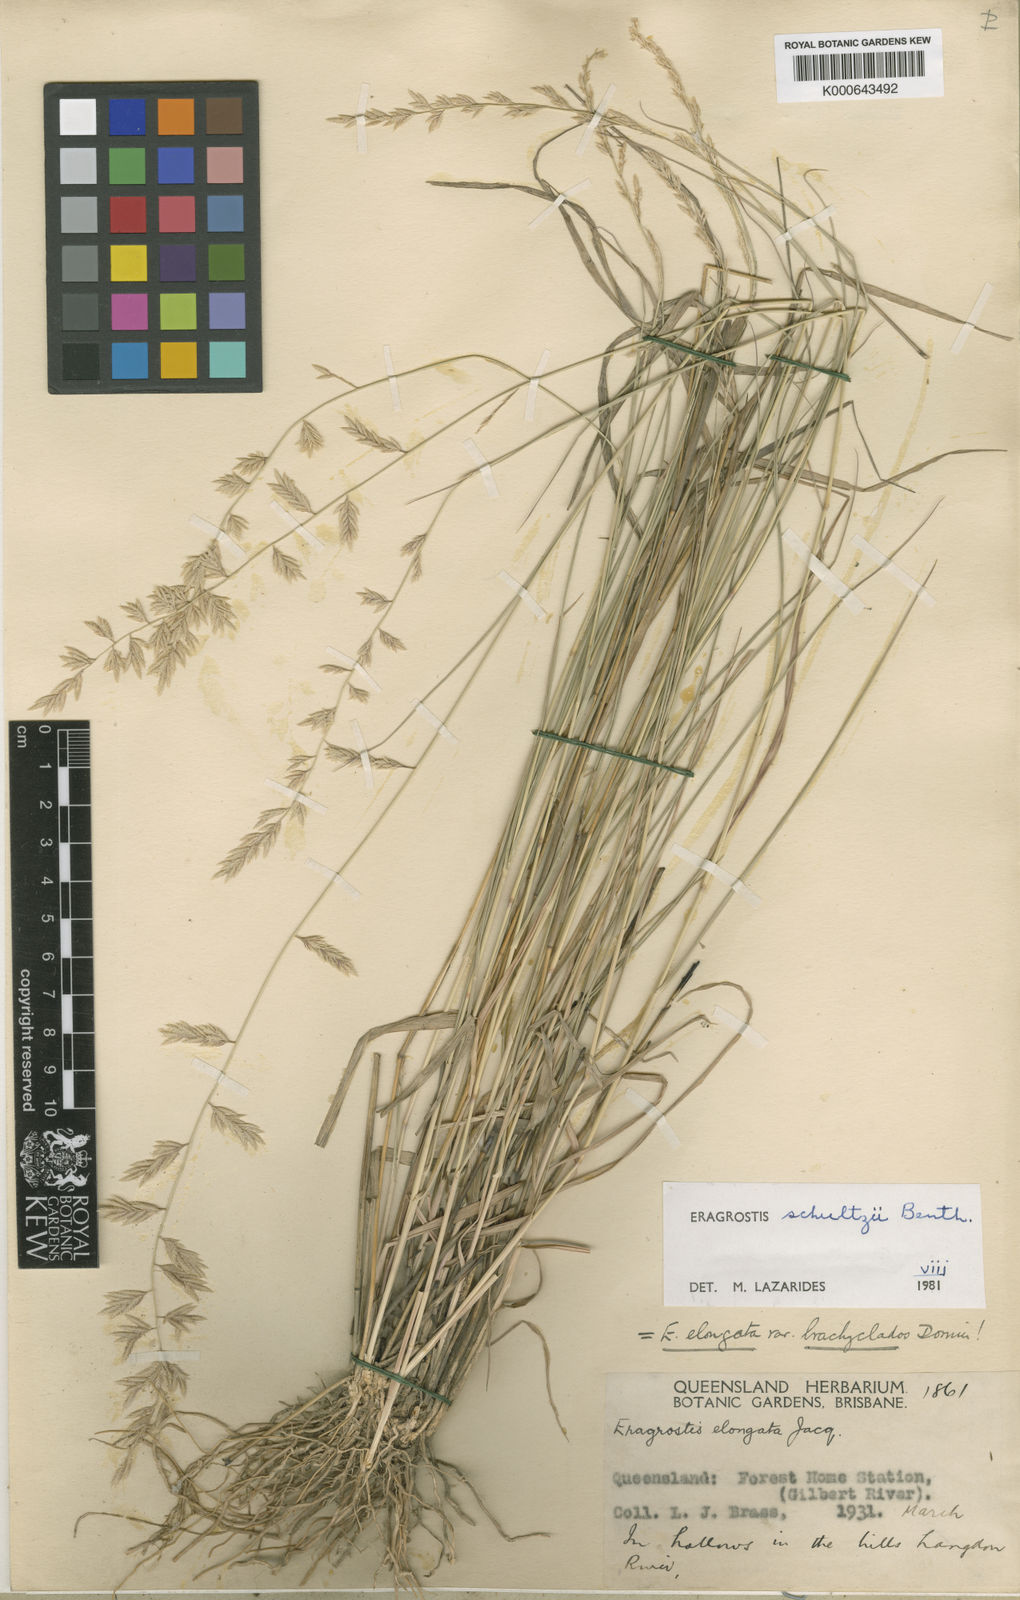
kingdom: Plantae
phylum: Tracheophyta
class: Liliopsida
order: Poales
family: Poaceae
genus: Eragrostis
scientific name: Eragrostis schultzii
